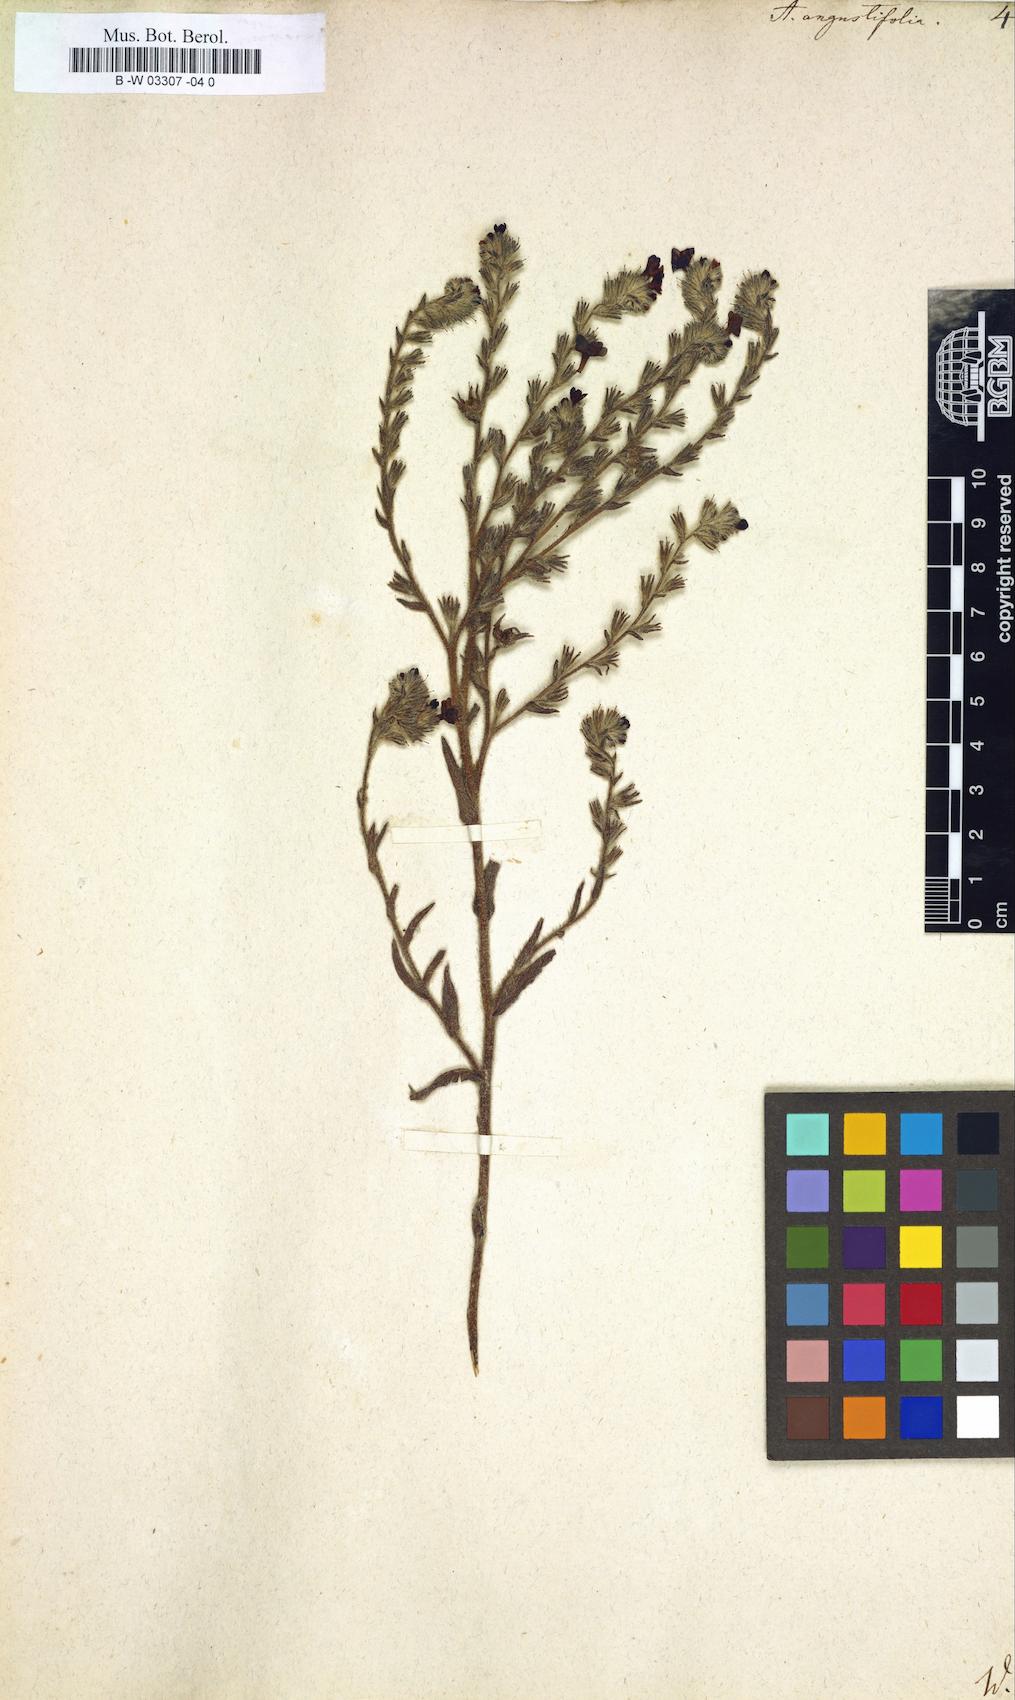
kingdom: Plantae
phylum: Tracheophyta
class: Magnoliopsida
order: Boraginales
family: Boraginaceae
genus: Anchusa
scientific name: Anchusa officinalis
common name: Alkanet
